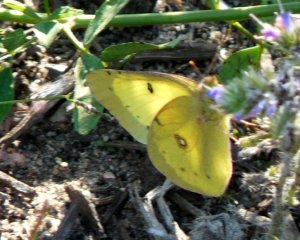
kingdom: Animalia
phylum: Arthropoda
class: Insecta
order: Lepidoptera
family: Pieridae
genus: Colias
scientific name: Colias philodice
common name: Clouded Sulphur
